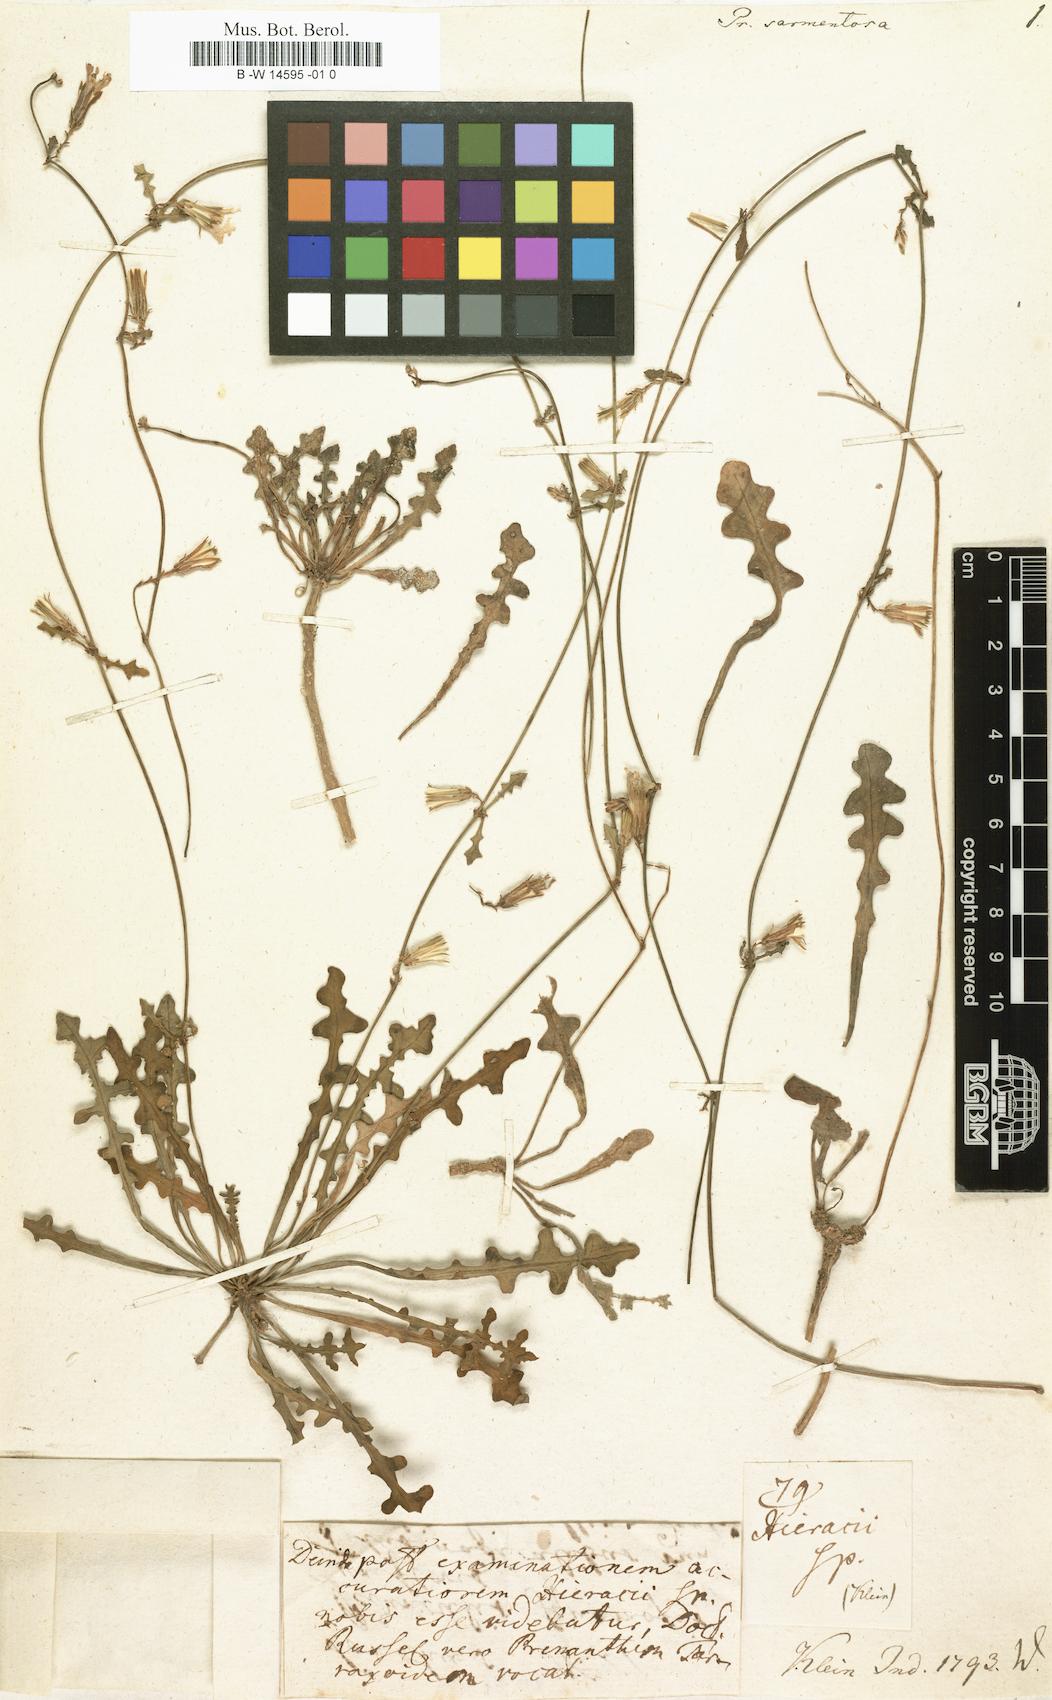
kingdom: Plantae
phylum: Tracheophyta
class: Magnoliopsida
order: Asterales
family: Asteraceae
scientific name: Asteraceae
